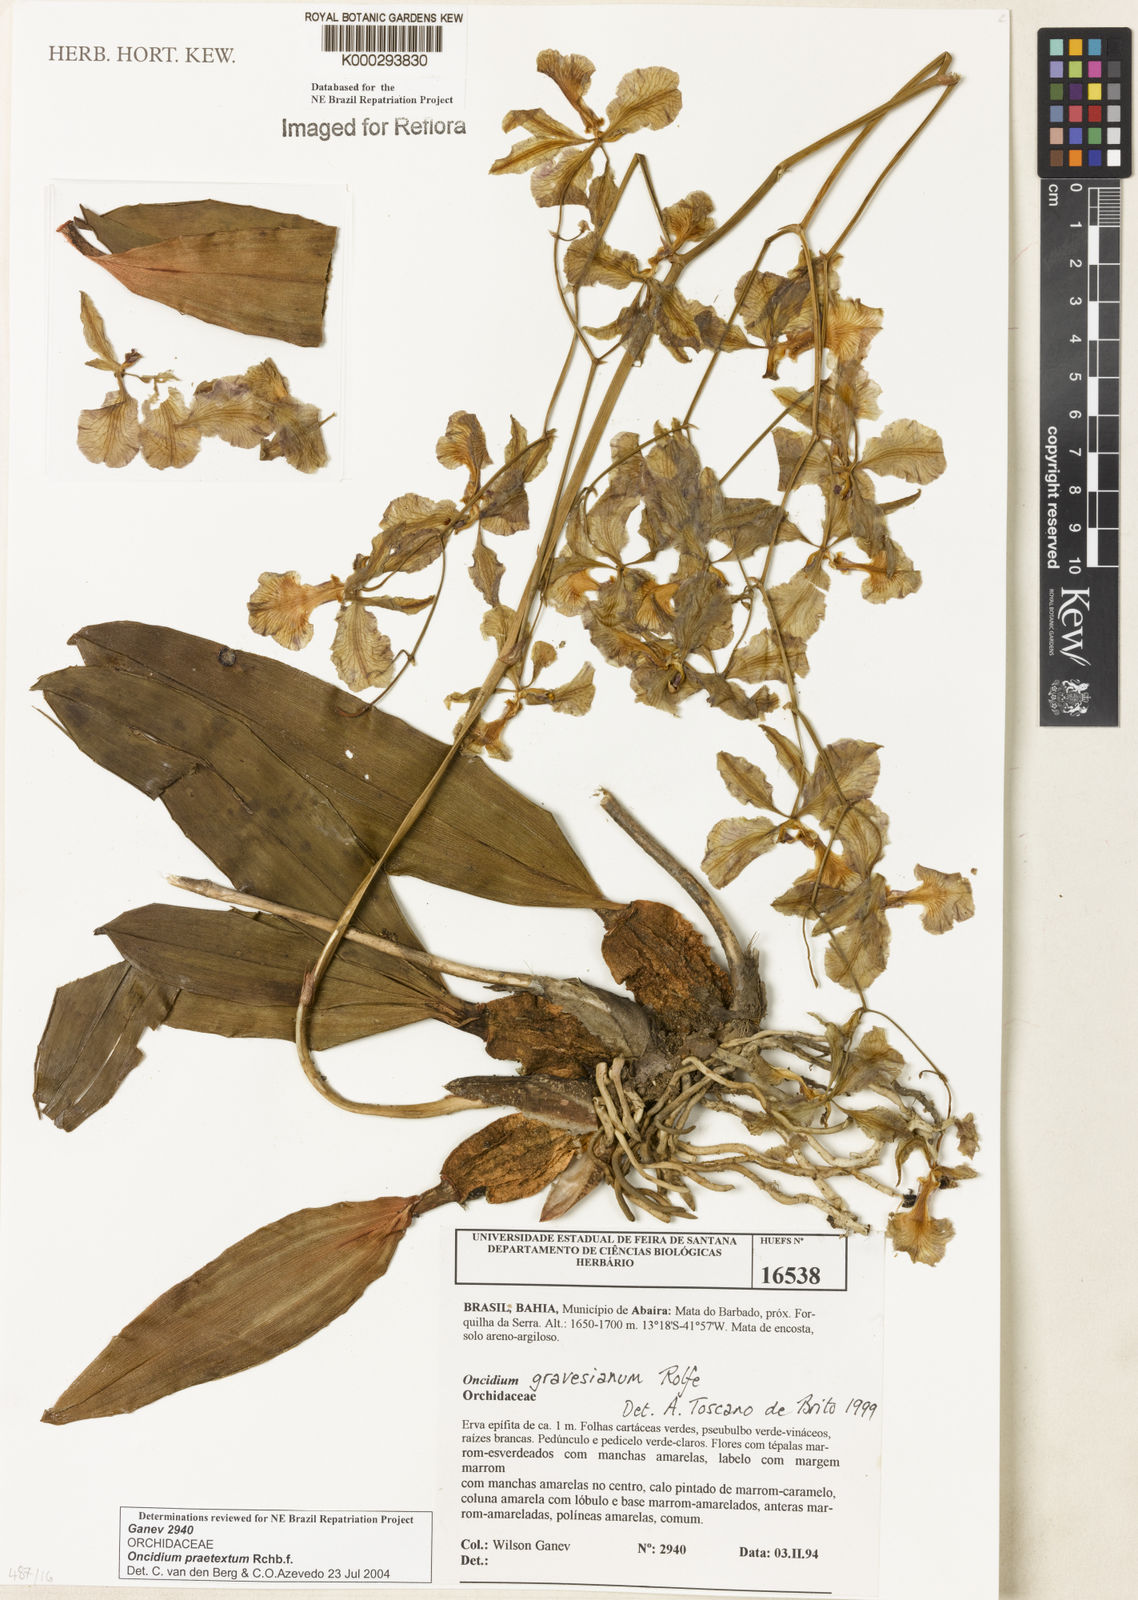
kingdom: Plantae
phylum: Tracheophyta
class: Liliopsida
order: Asparagales
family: Orchidaceae
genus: Gomesa
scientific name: Gomesa praetexta
